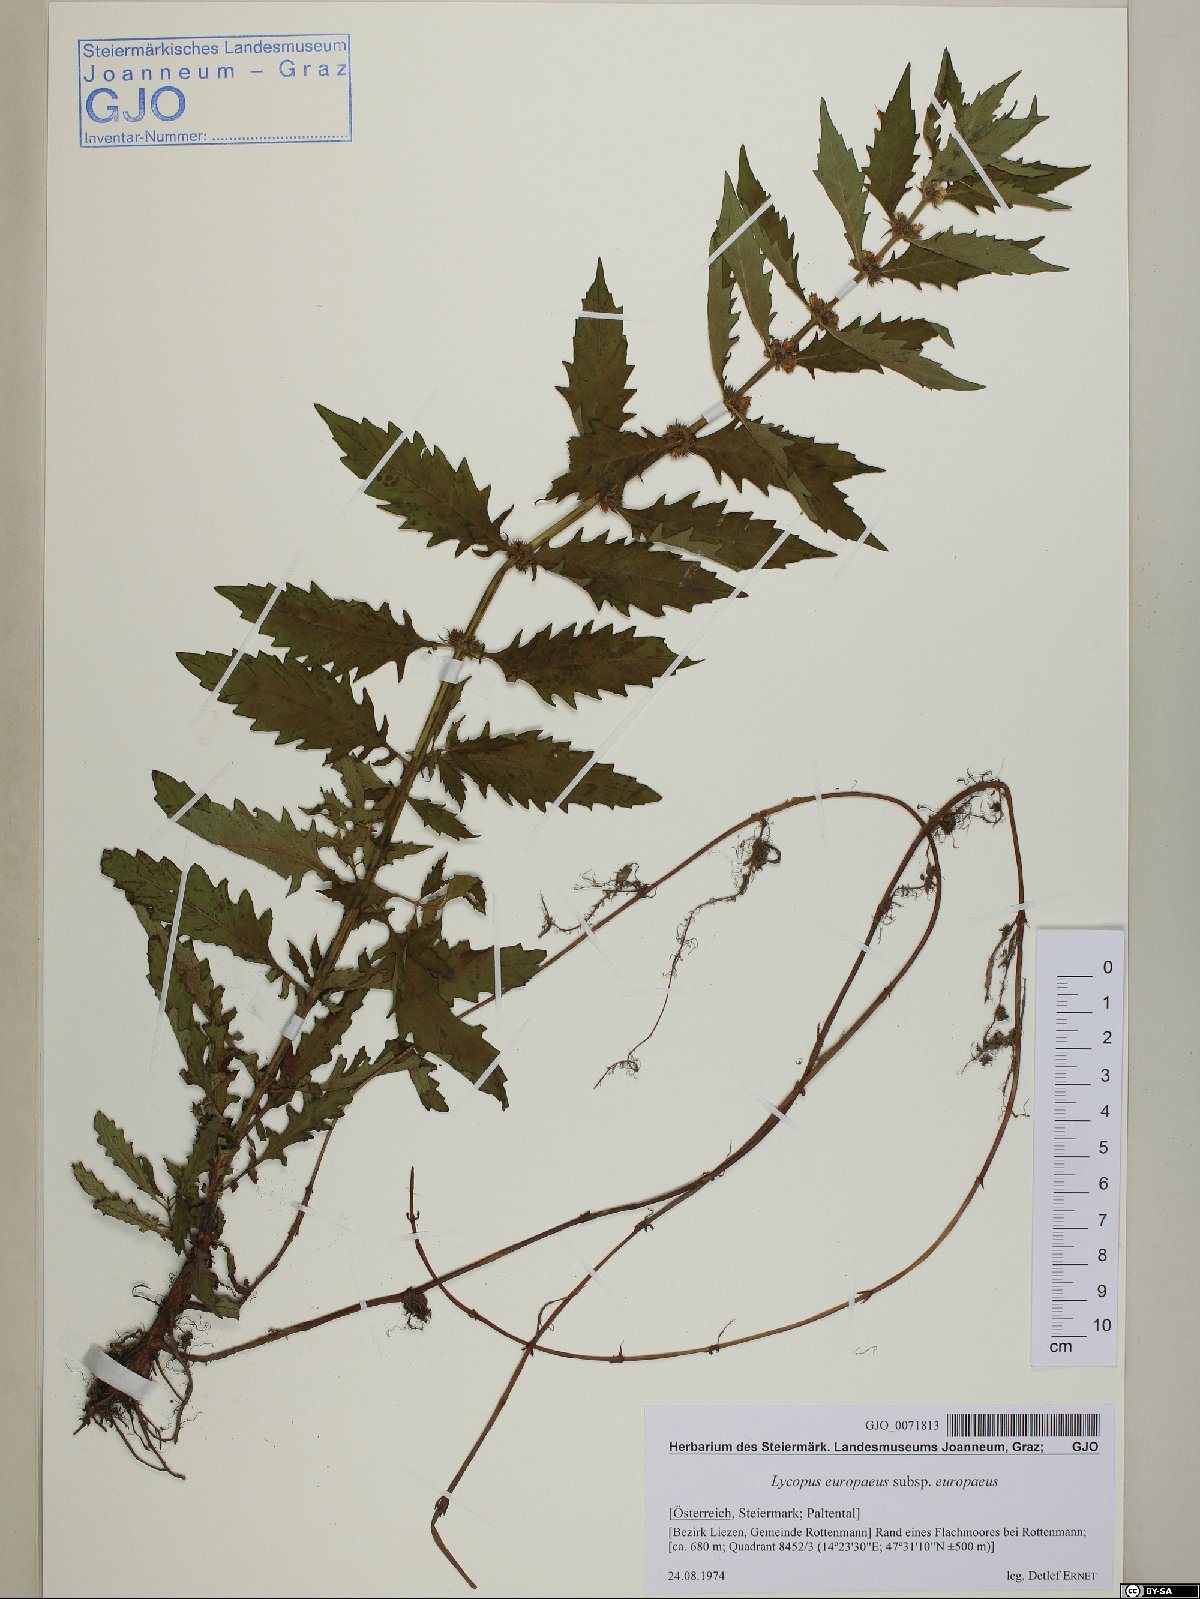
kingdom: Plantae
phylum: Tracheophyta
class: Magnoliopsida
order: Lamiales
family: Lamiaceae
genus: Lycopus
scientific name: Lycopus europaeus
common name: European bugleweed
